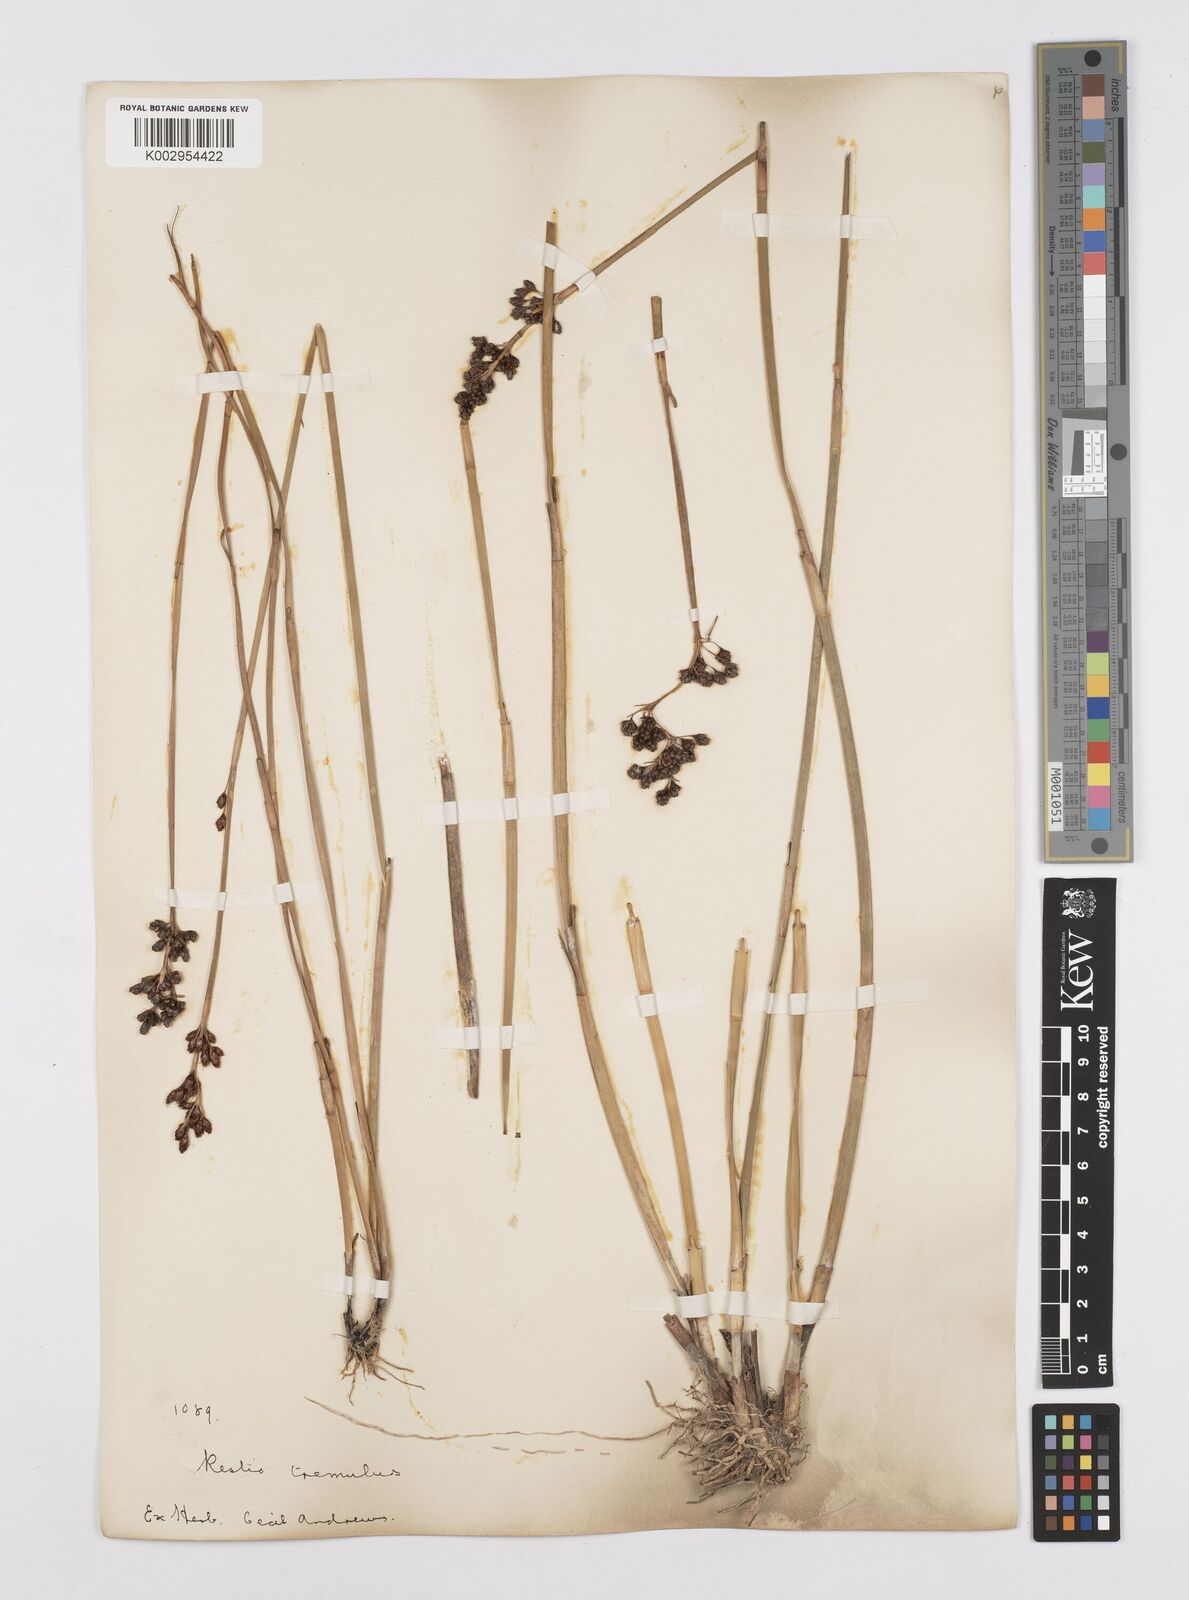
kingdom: Plantae
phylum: Tracheophyta
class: Liliopsida
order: Poales
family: Restionaceae
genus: Tremulina
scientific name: Tremulina tremula
